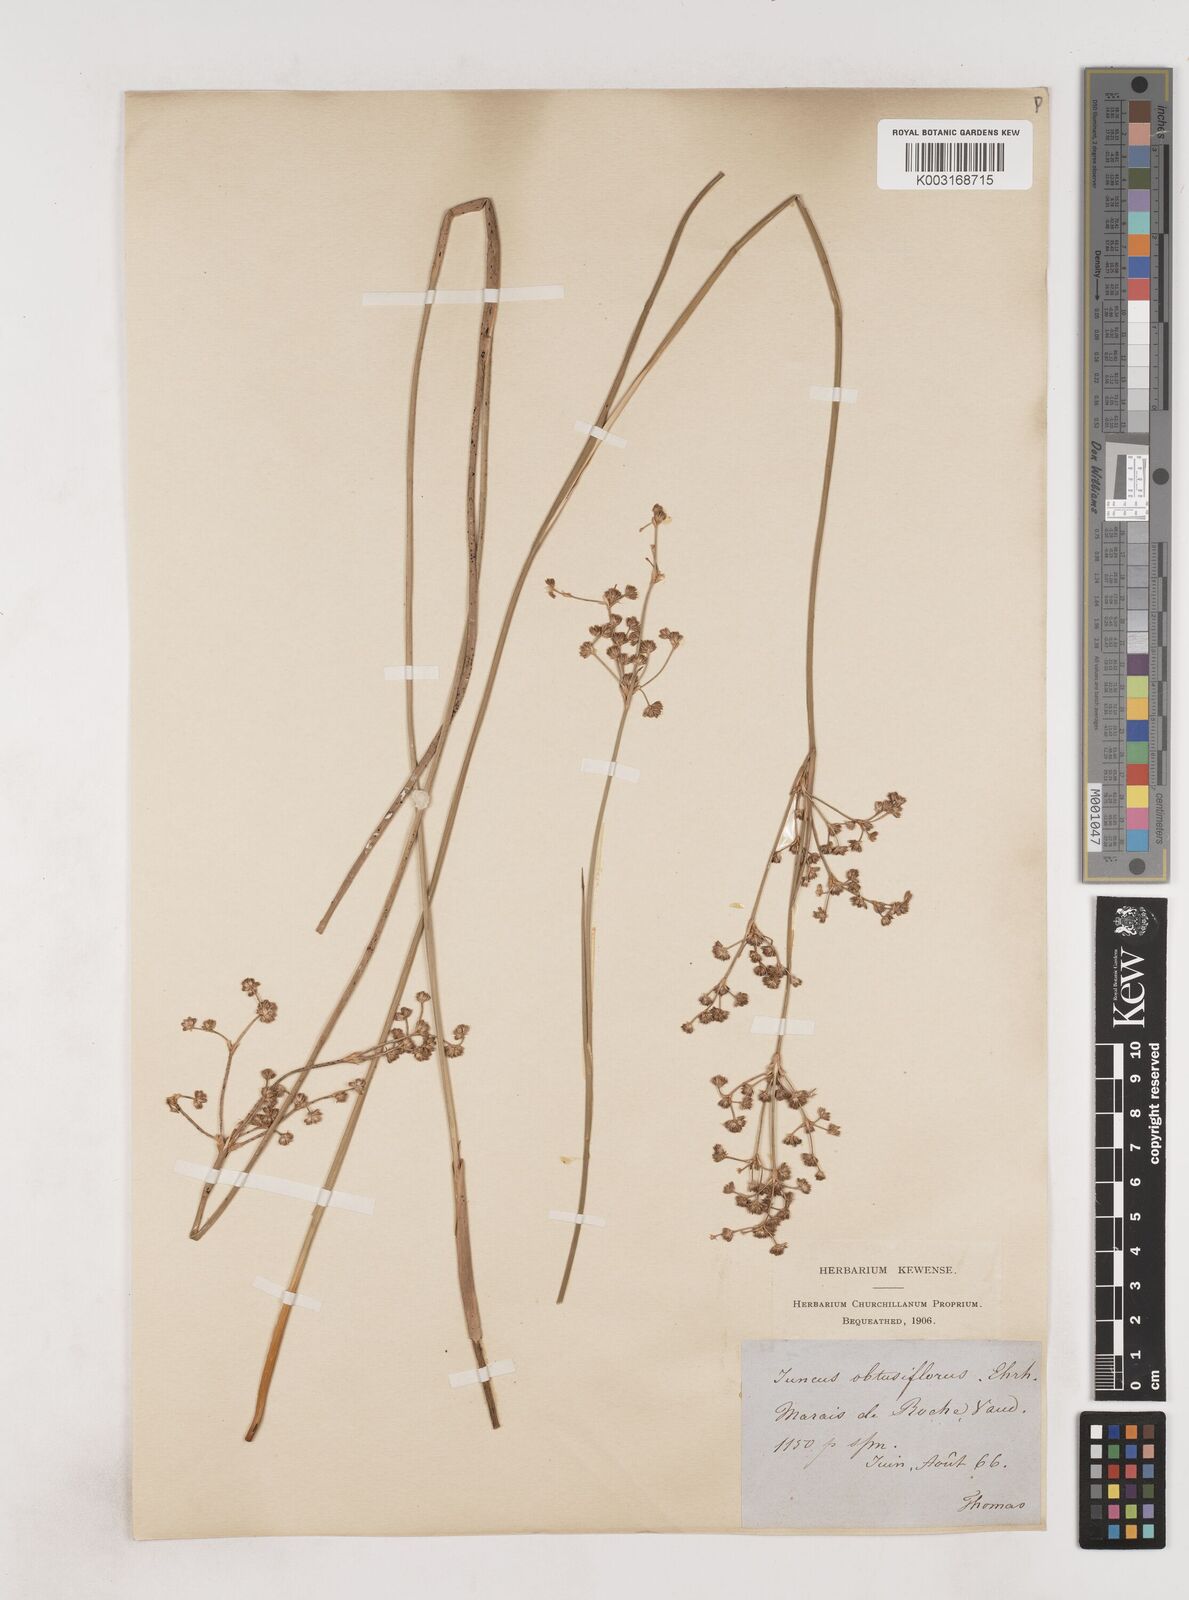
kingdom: Plantae
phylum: Tracheophyta
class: Liliopsida
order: Poales
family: Juncaceae
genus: Juncus
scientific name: Juncus subnodulosus
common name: Blunt-flowered rush
